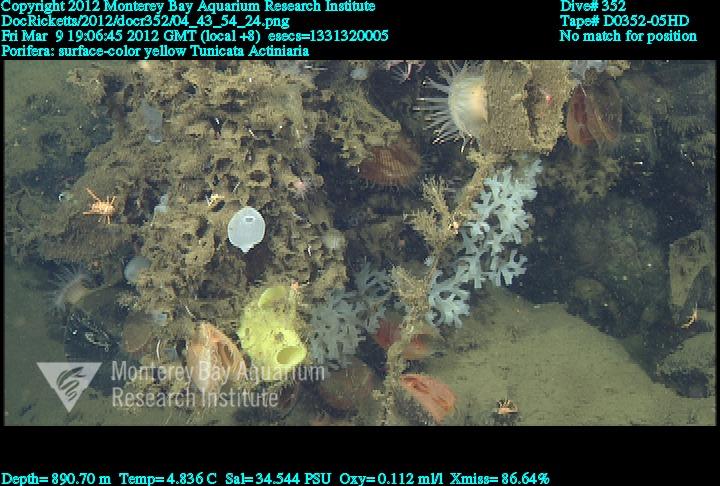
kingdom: Animalia
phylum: Porifera
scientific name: Porifera
